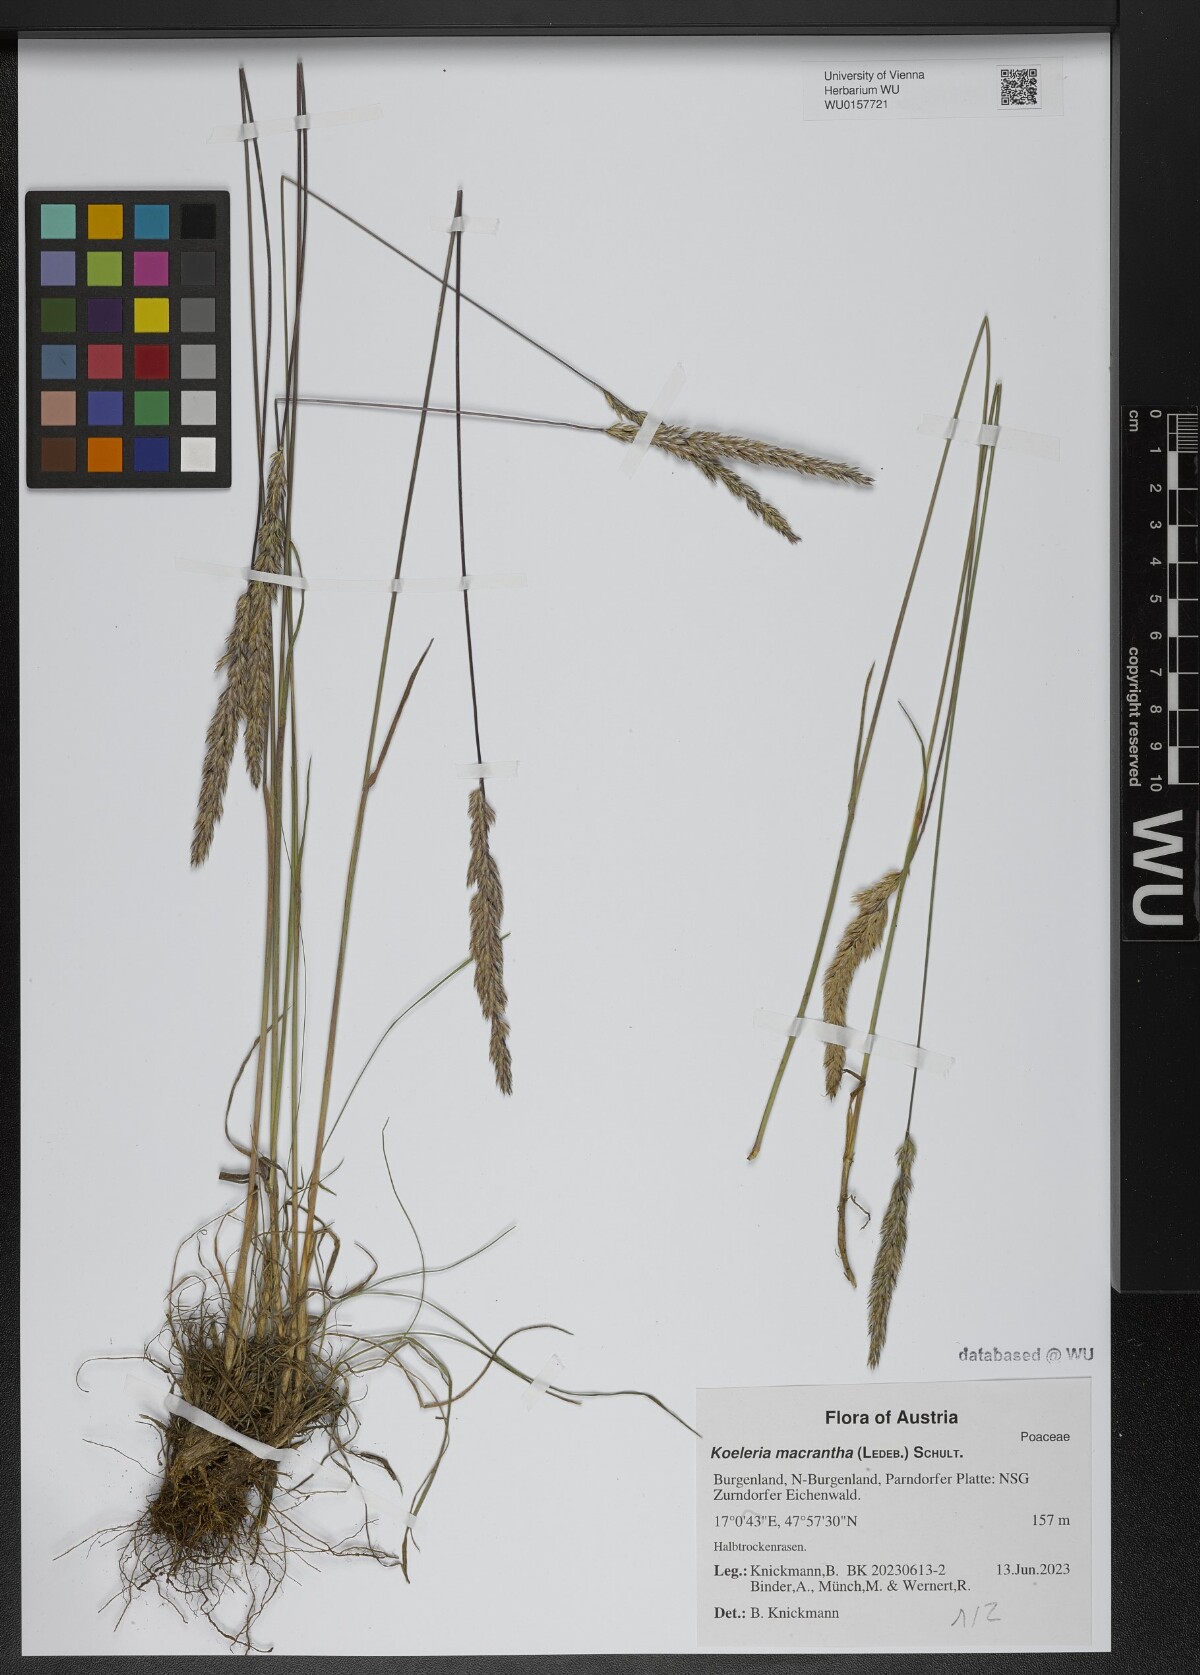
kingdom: Plantae
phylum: Tracheophyta
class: Liliopsida
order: Poales
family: Poaceae
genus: Koeleria
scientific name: Koeleria macrantha
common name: Crested hair-grass
